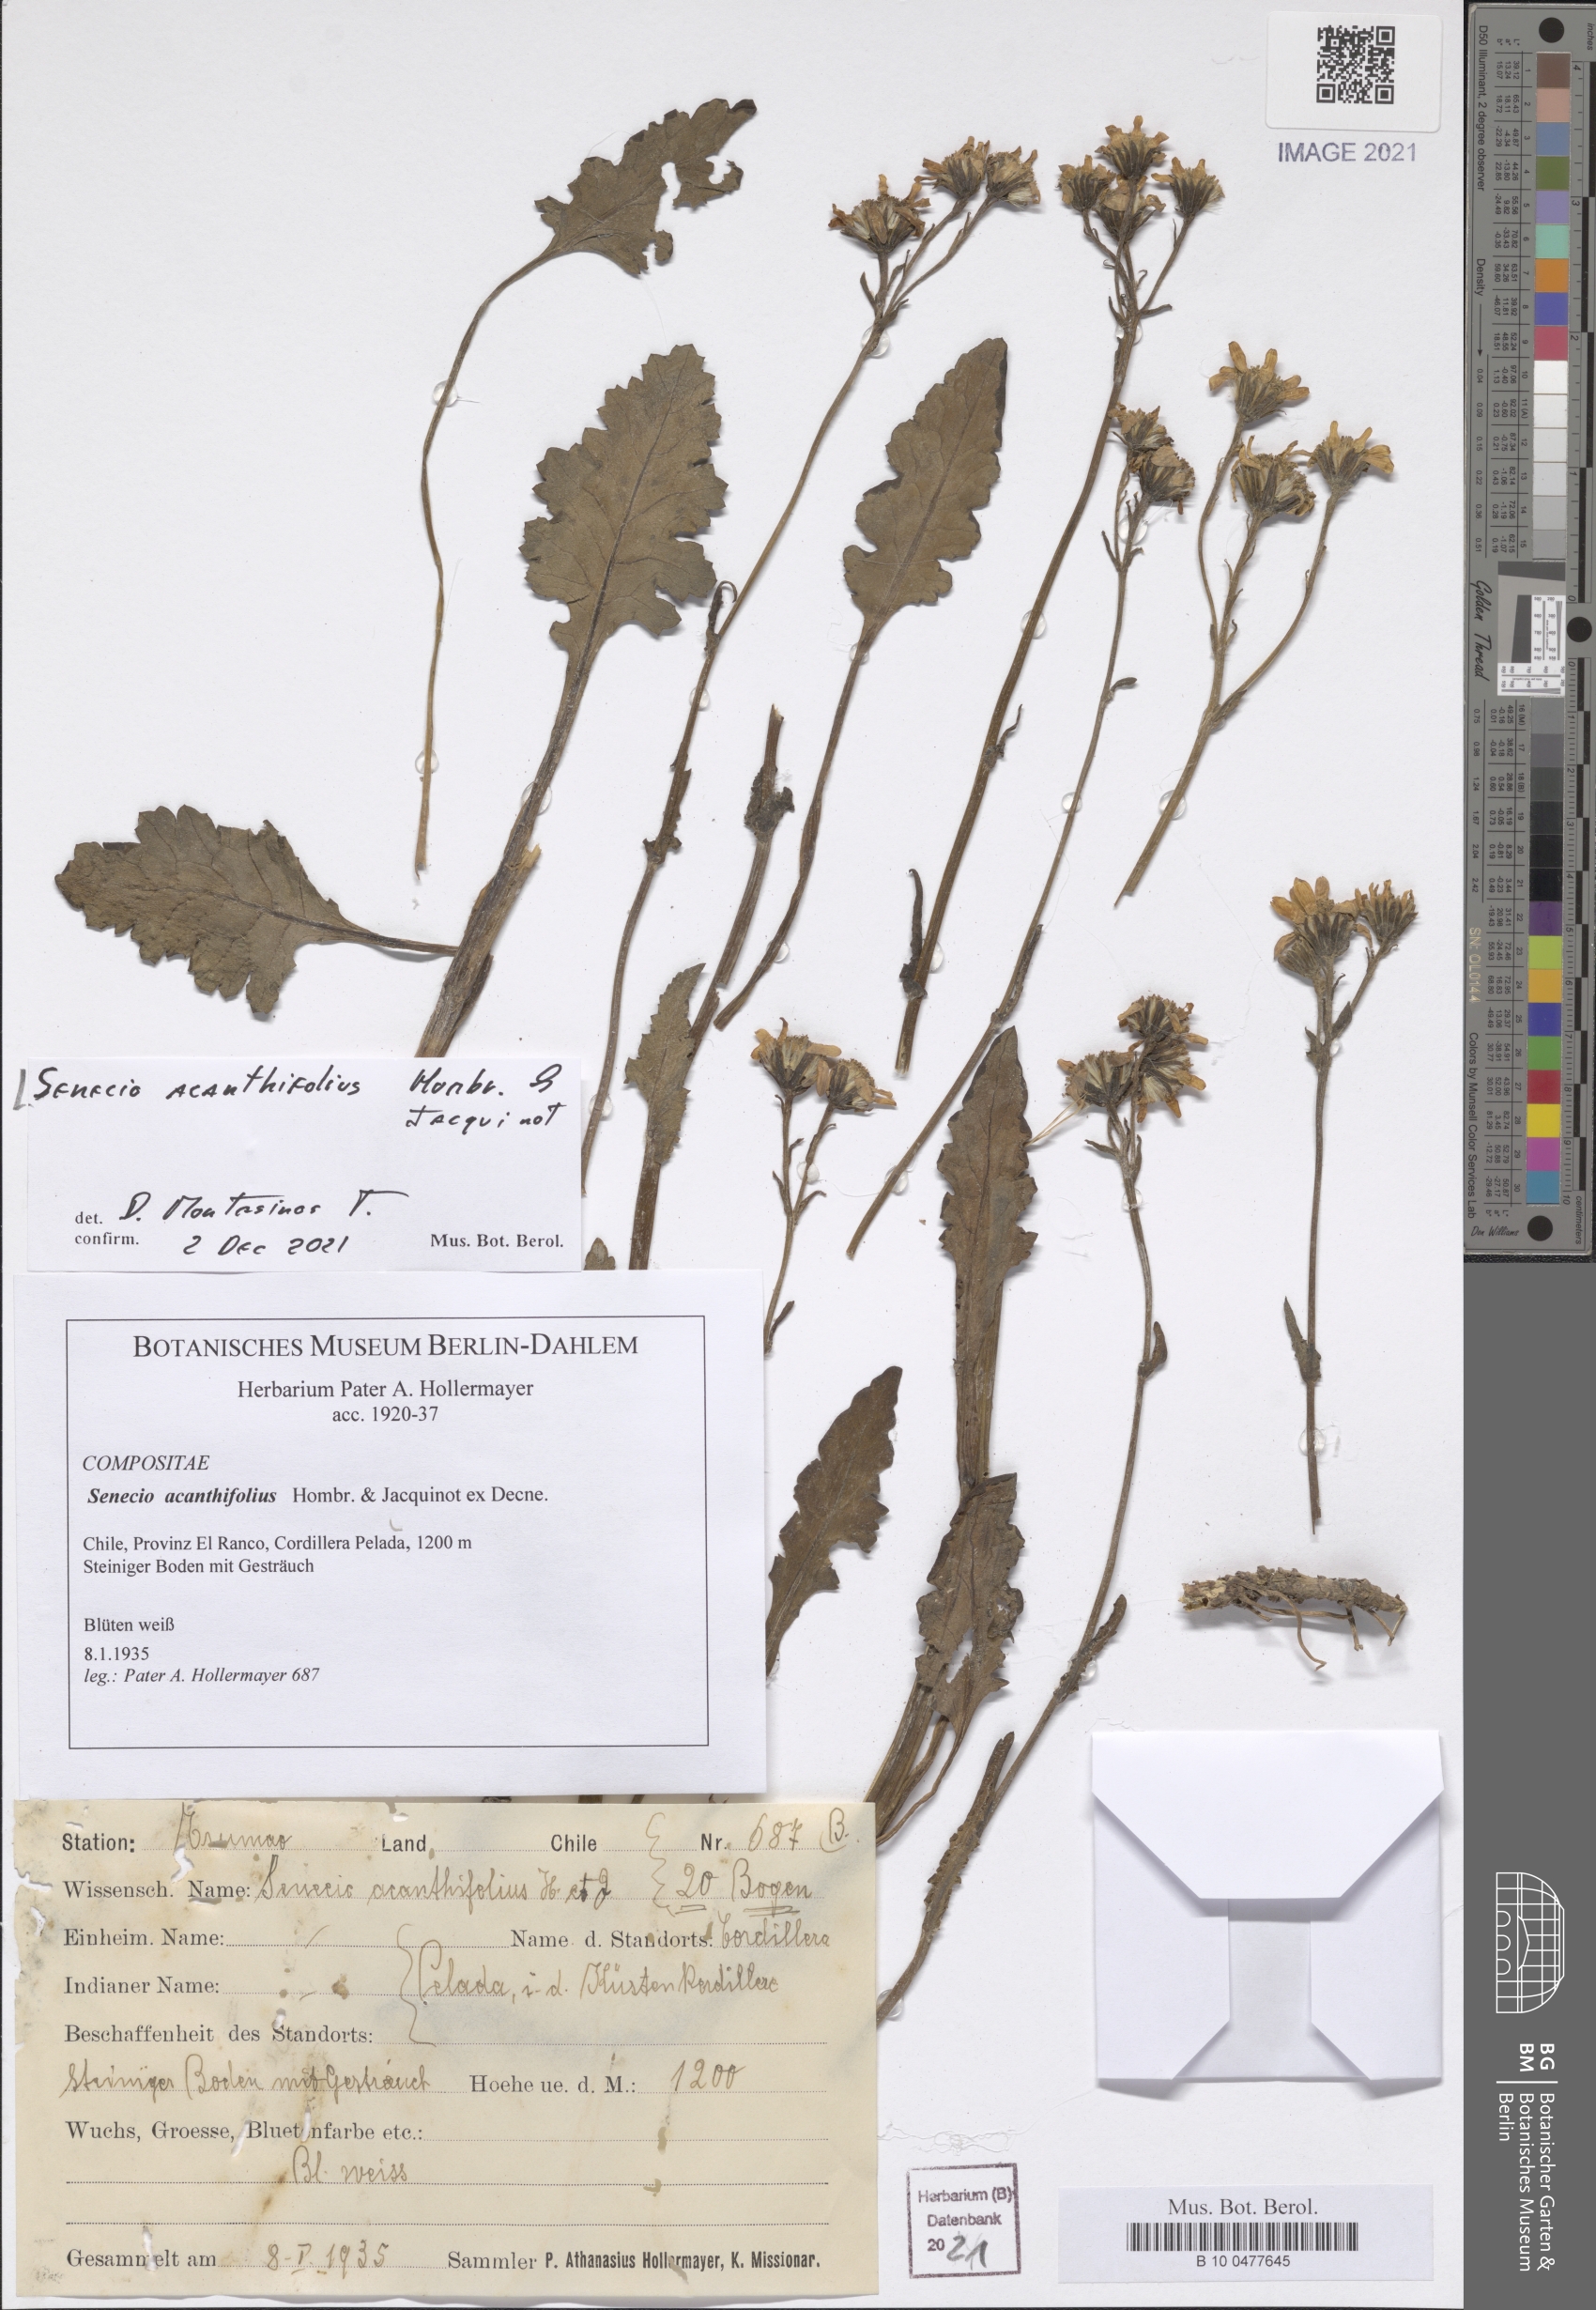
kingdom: Plantae
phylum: Tracheophyta
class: Magnoliopsida
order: Asterales
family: Asteraceae
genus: Iocenes
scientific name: Iocenes virens
